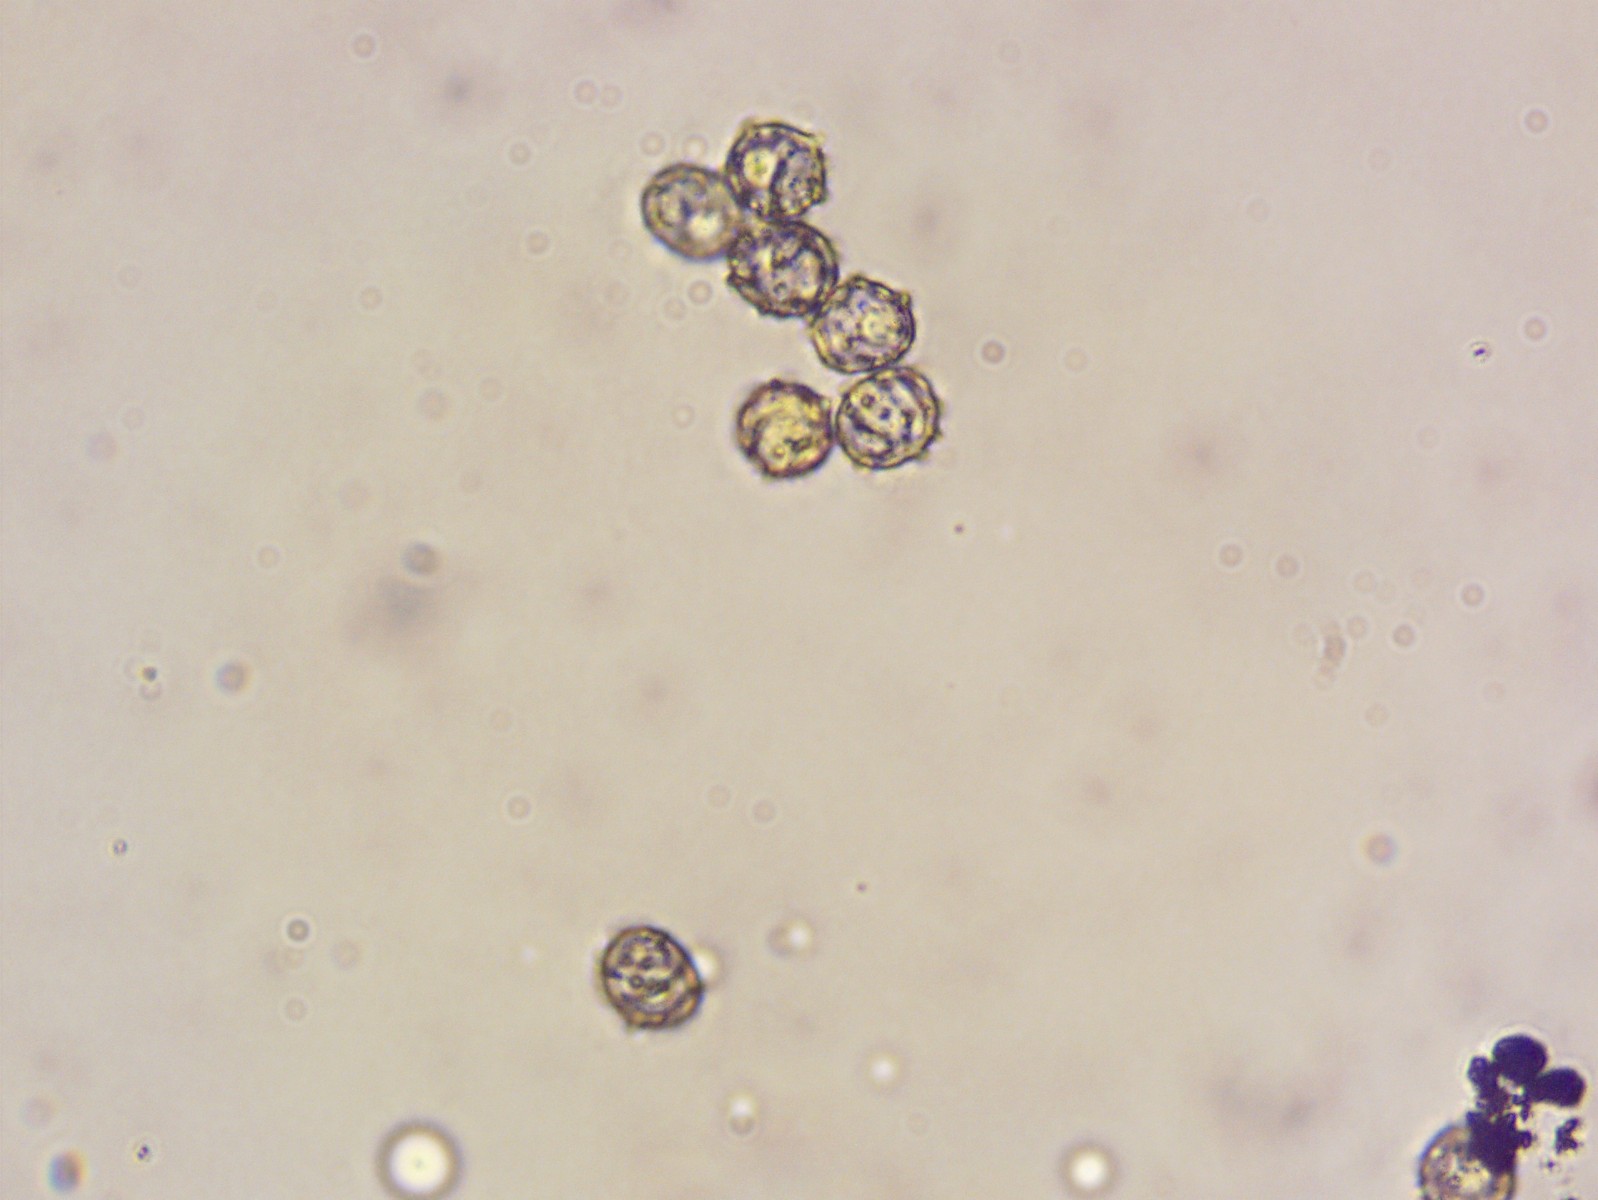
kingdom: Fungi
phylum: Basidiomycota
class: Agaricomycetes
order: Russulales
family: Russulaceae
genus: Lactarius
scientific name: Lactarius scrobiculatus
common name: grubestokket mælkehat
